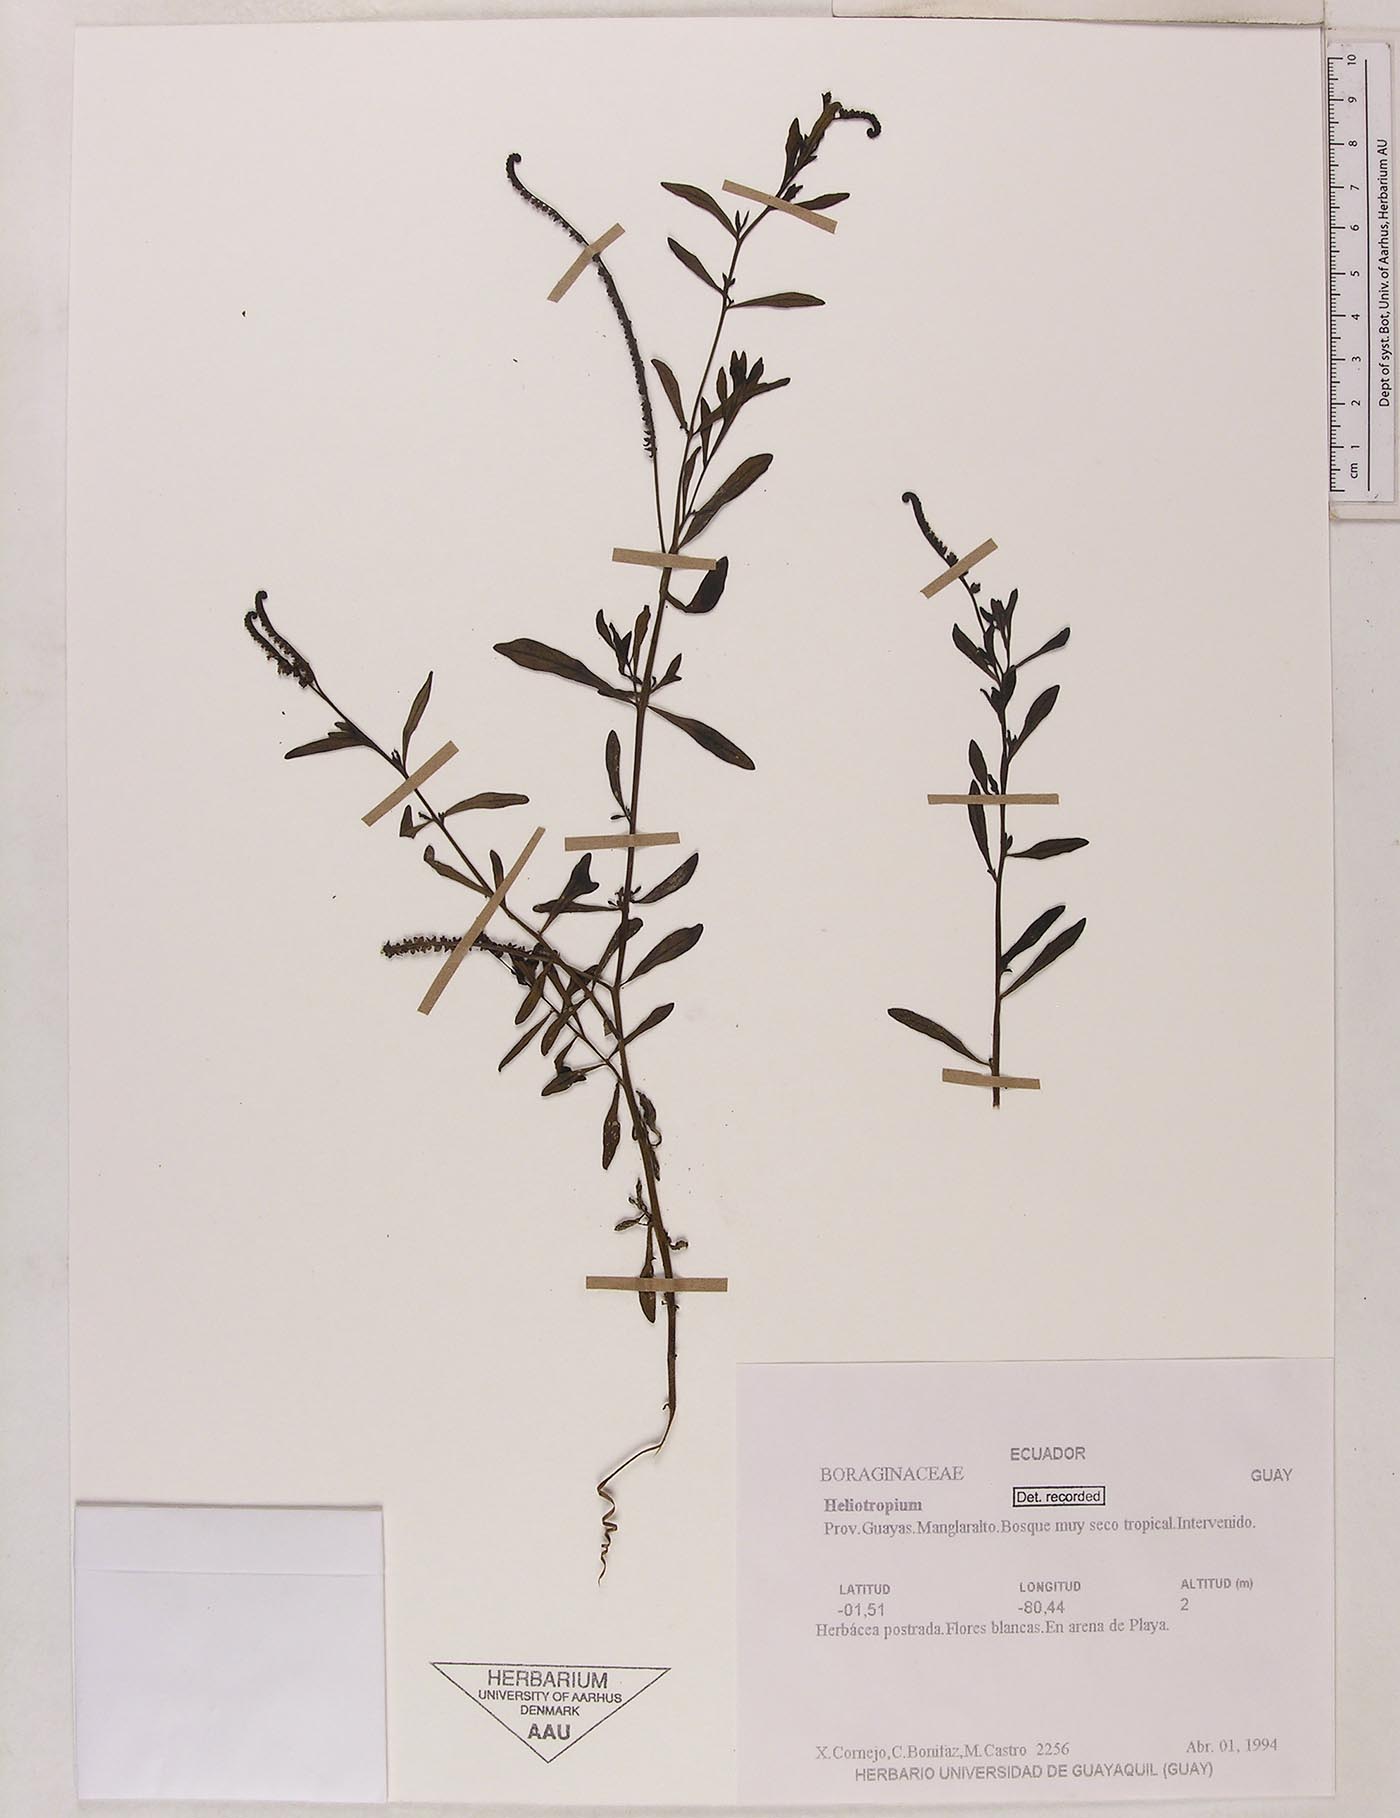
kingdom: Plantae
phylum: Tracheophyta
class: Magnoliopsida
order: Boraginales
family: Heliotropiaceae
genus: Heliotropium
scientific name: Heliotropium curassavicum
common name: Seaside heliotrope
